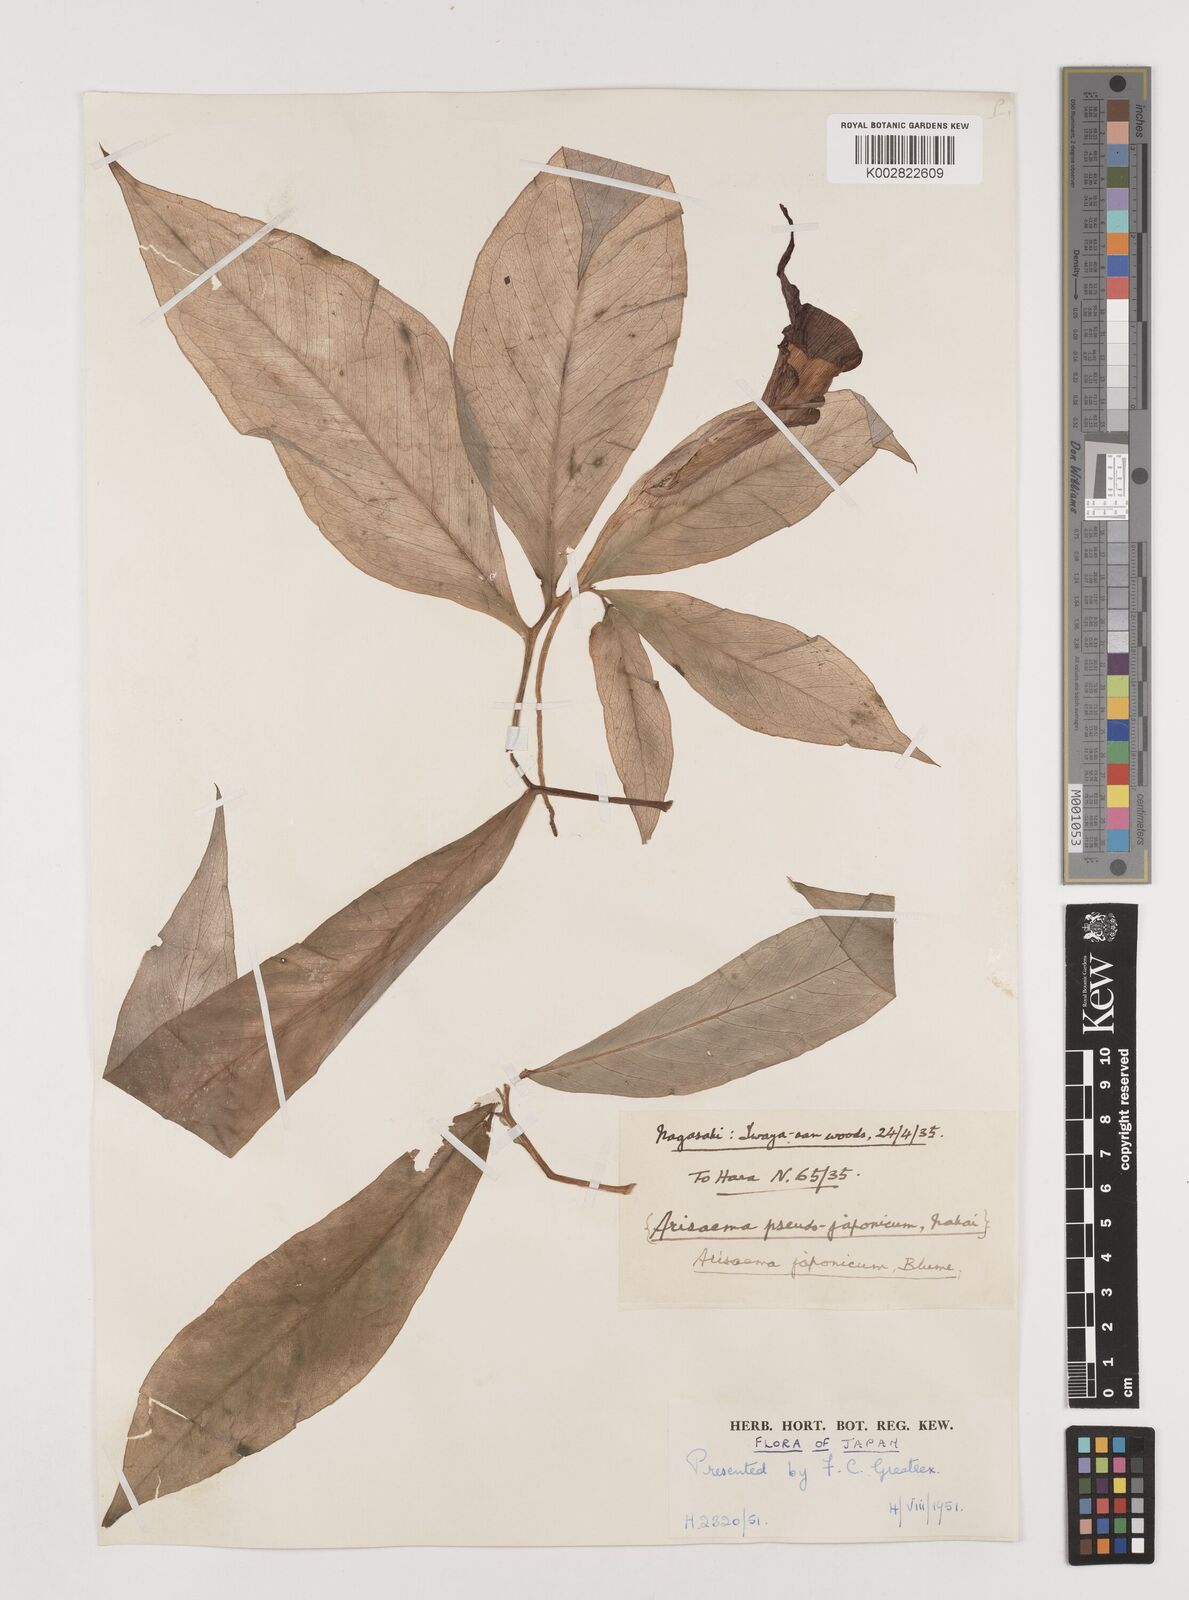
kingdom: Plantae
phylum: Tracheophyta
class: Liliopsida
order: Alismatales
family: Araceae
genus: Arisaema
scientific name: Arisaema serratum
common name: Japanese arisaema
